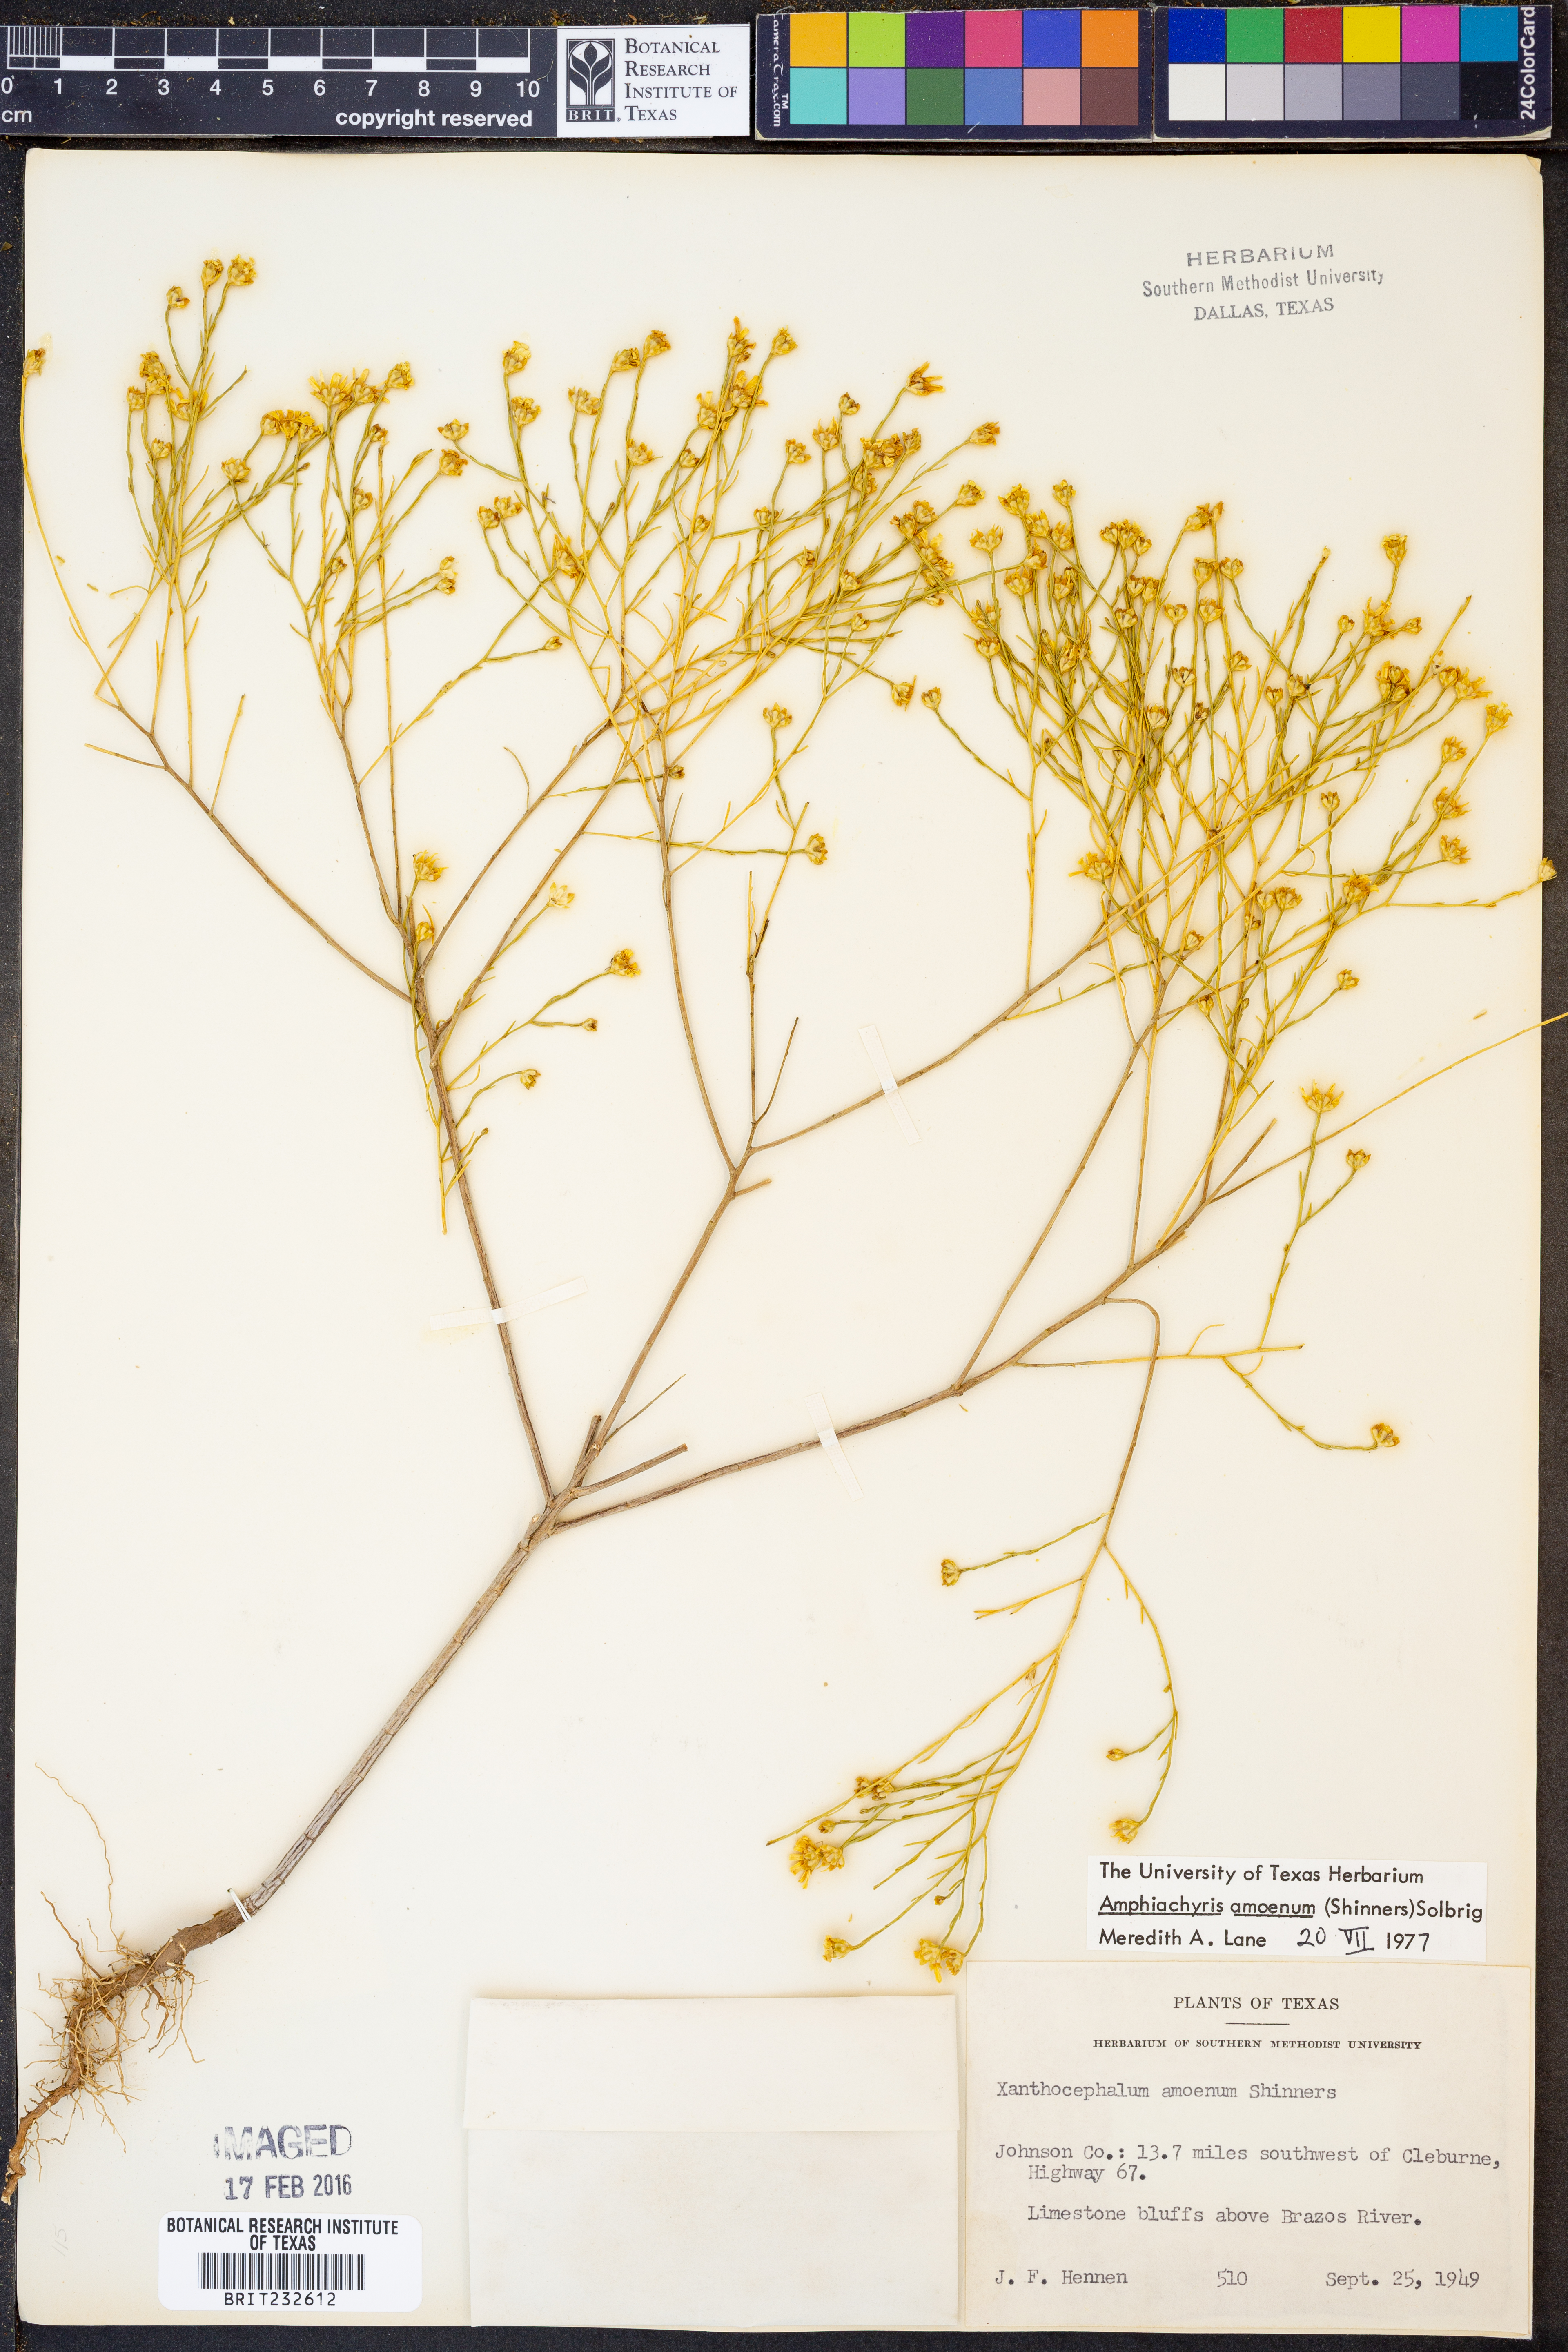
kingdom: Plantae
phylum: Tracheophyta
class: Magnoliopsida
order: Asterales
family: Asteraceae
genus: Amphiachyris
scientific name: Amphiachyris amoenum
